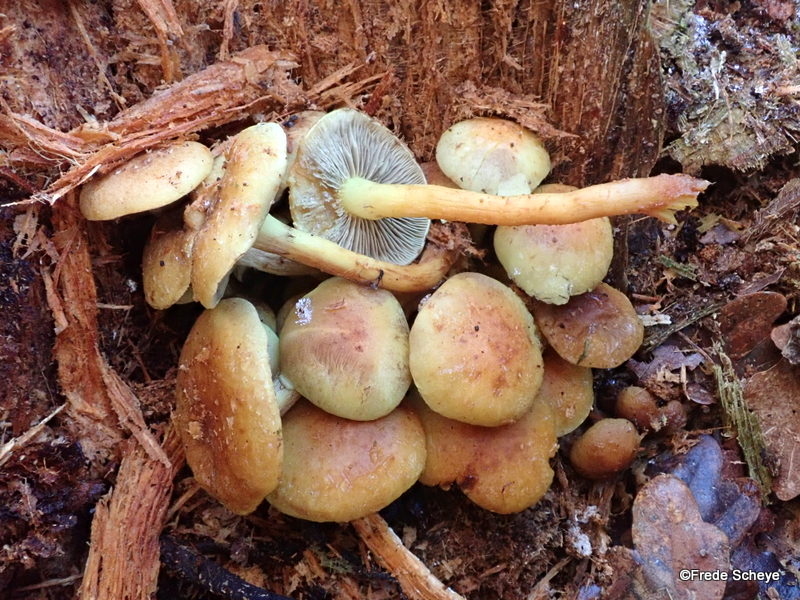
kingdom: Fungi
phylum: Basidiomycota
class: Agaricomycetes
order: Agaricales
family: Strophariaceae
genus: Hypholoma
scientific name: Hypholoma fasciculare
